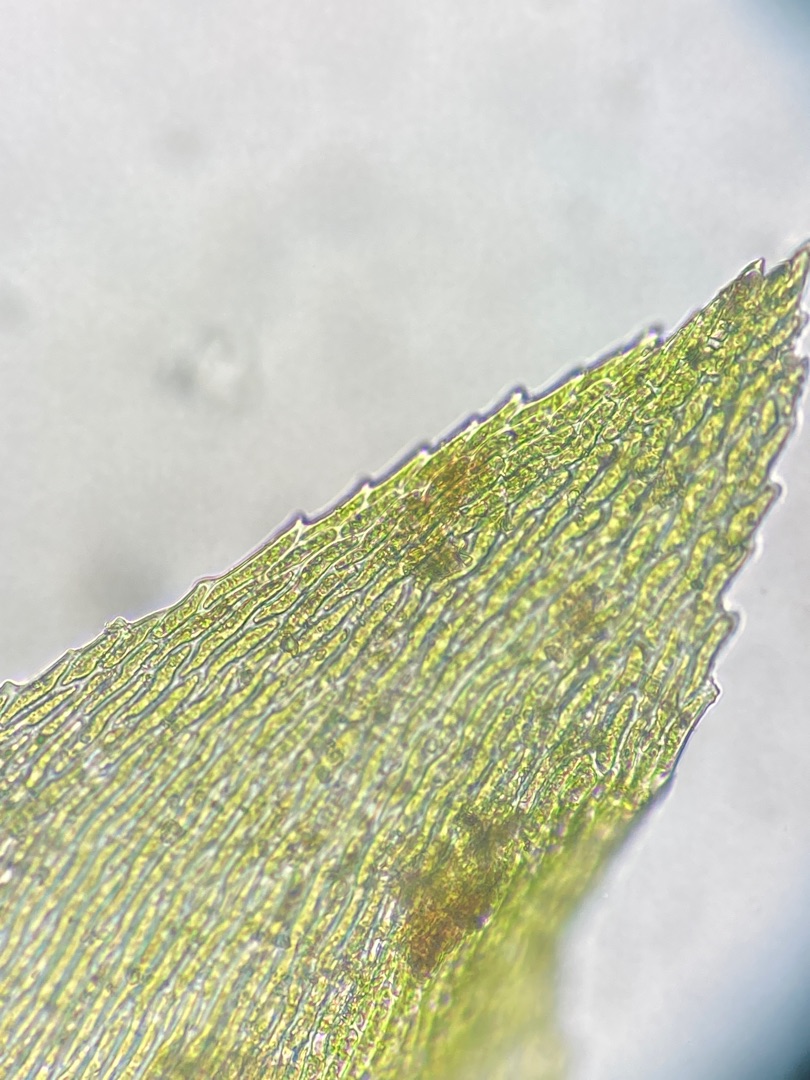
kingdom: Plantae
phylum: Bryophyta
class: Bryopsida
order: Hypnales
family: Brachytheciaceae
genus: Rhynchostegium
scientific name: Rhynchostegium riparioides
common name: Robust strømmos
